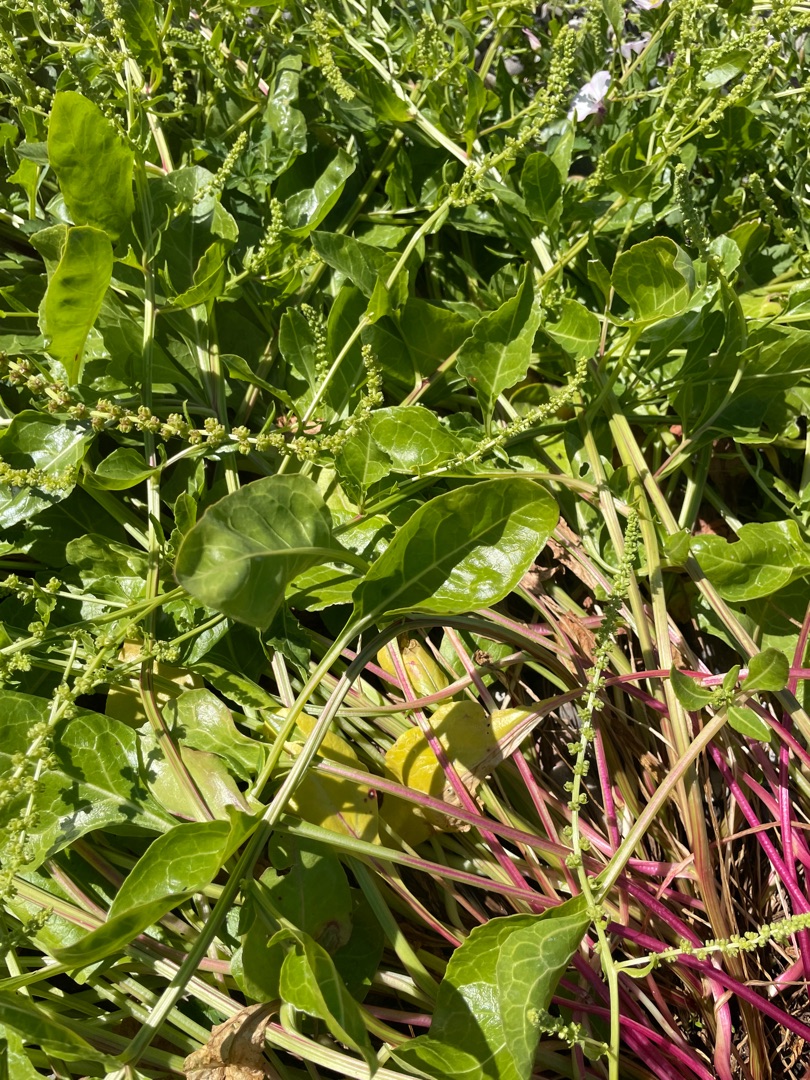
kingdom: Plantae
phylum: Tracheophyta
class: Magnoliopsida
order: Caryophyllales
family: Amaranthaceae
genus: Beta
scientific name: Beta maritima
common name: Strand-bede
